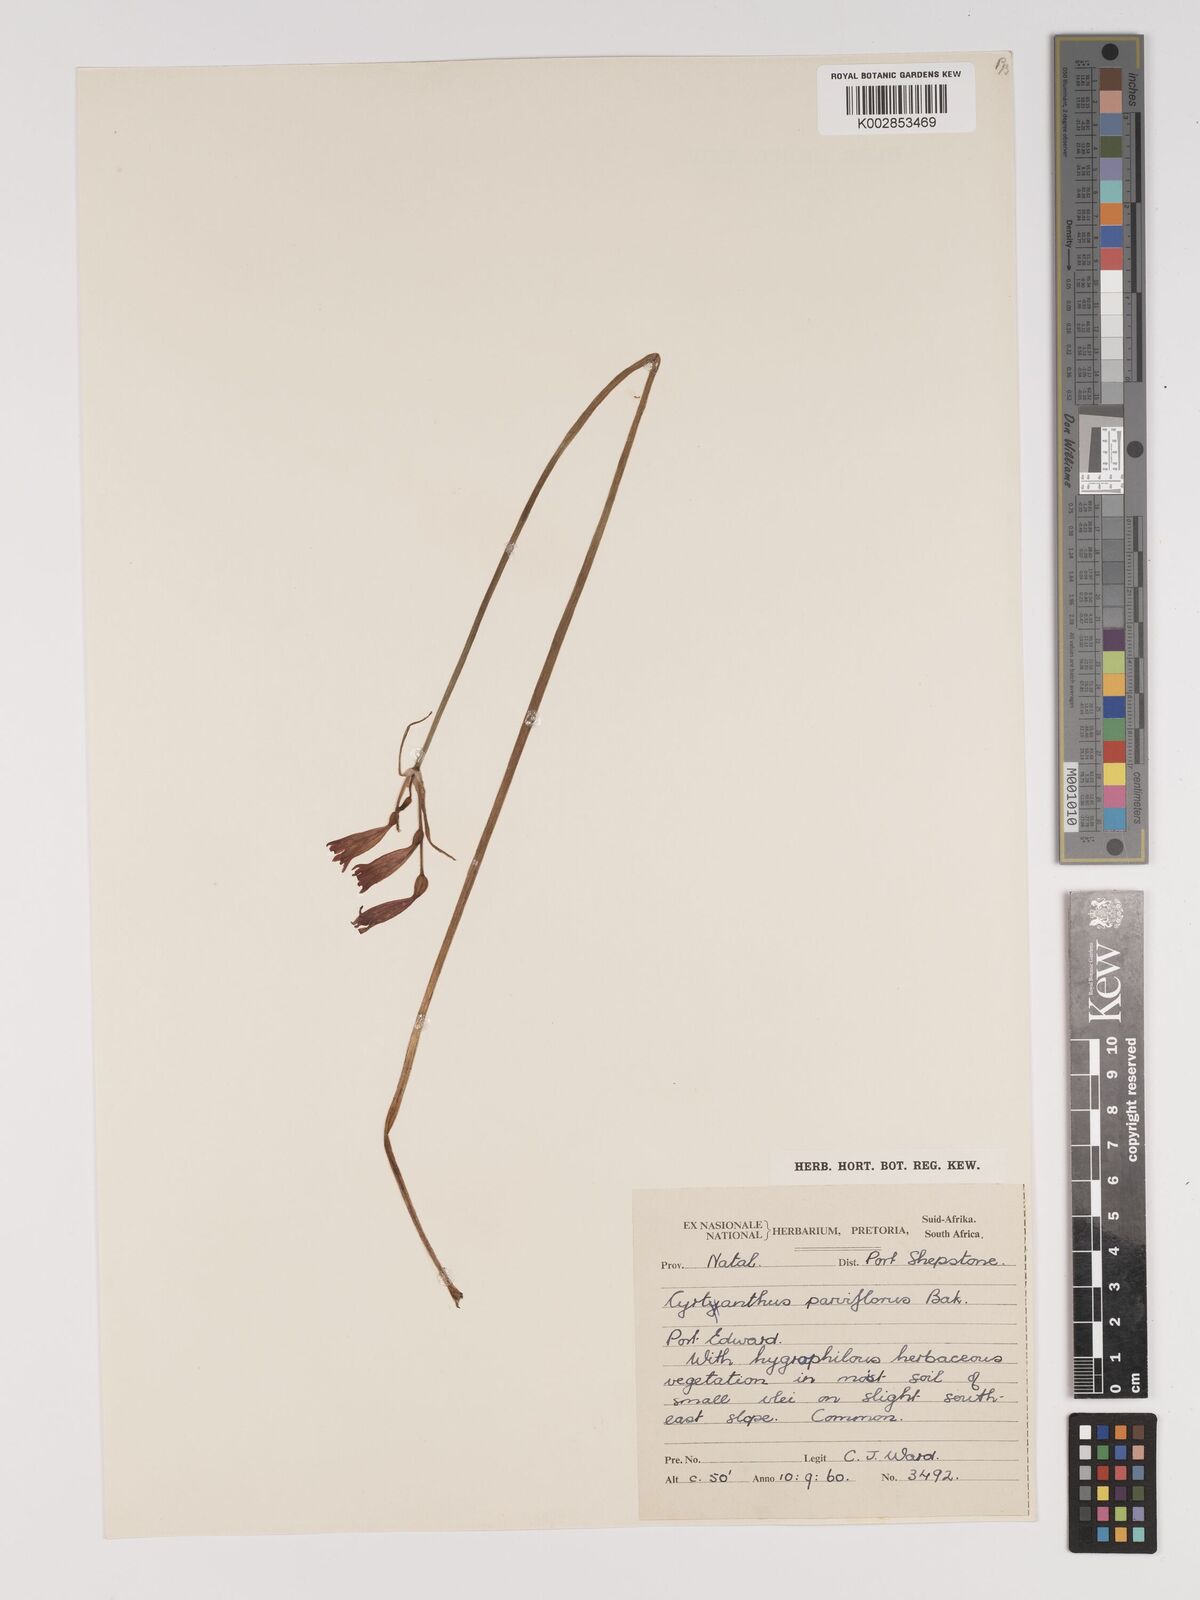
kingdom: Plantae
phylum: Tracheophyta
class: Liliopsida
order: Asparagales
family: Amaryllidaceae
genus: Cyrtanthus
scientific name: Cyrtanthus bicolor
